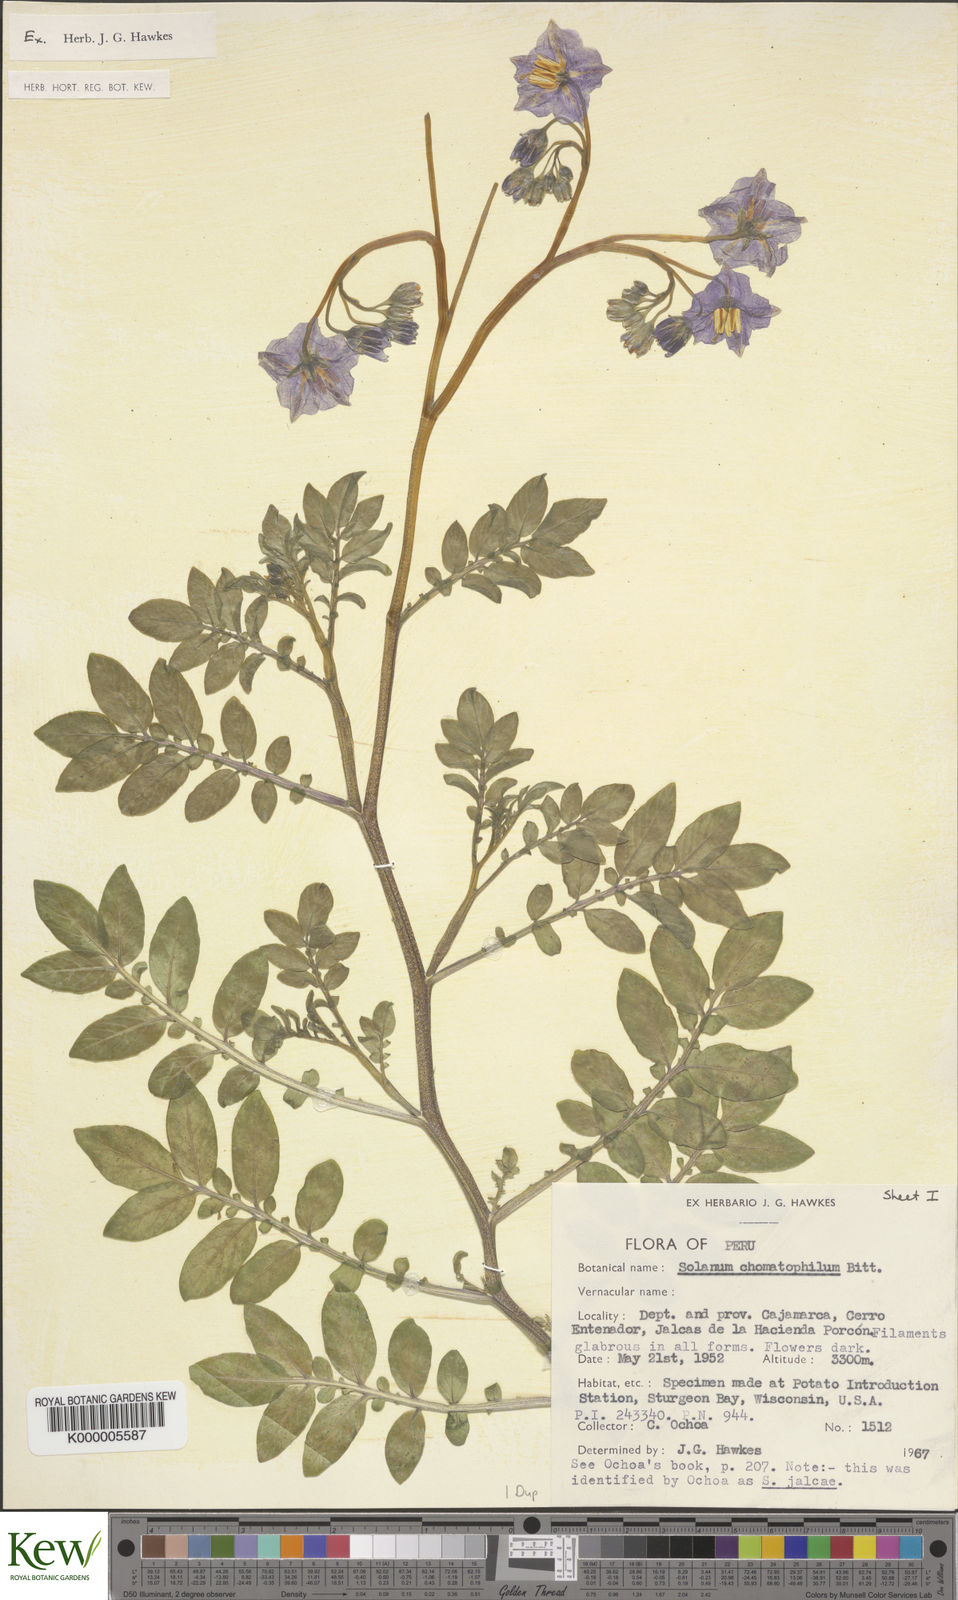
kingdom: Plantae
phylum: Tracheophyta
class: Magnoliopsida
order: Solanales
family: Solanaceae
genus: Solanum
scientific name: Solanum chomatophilum
